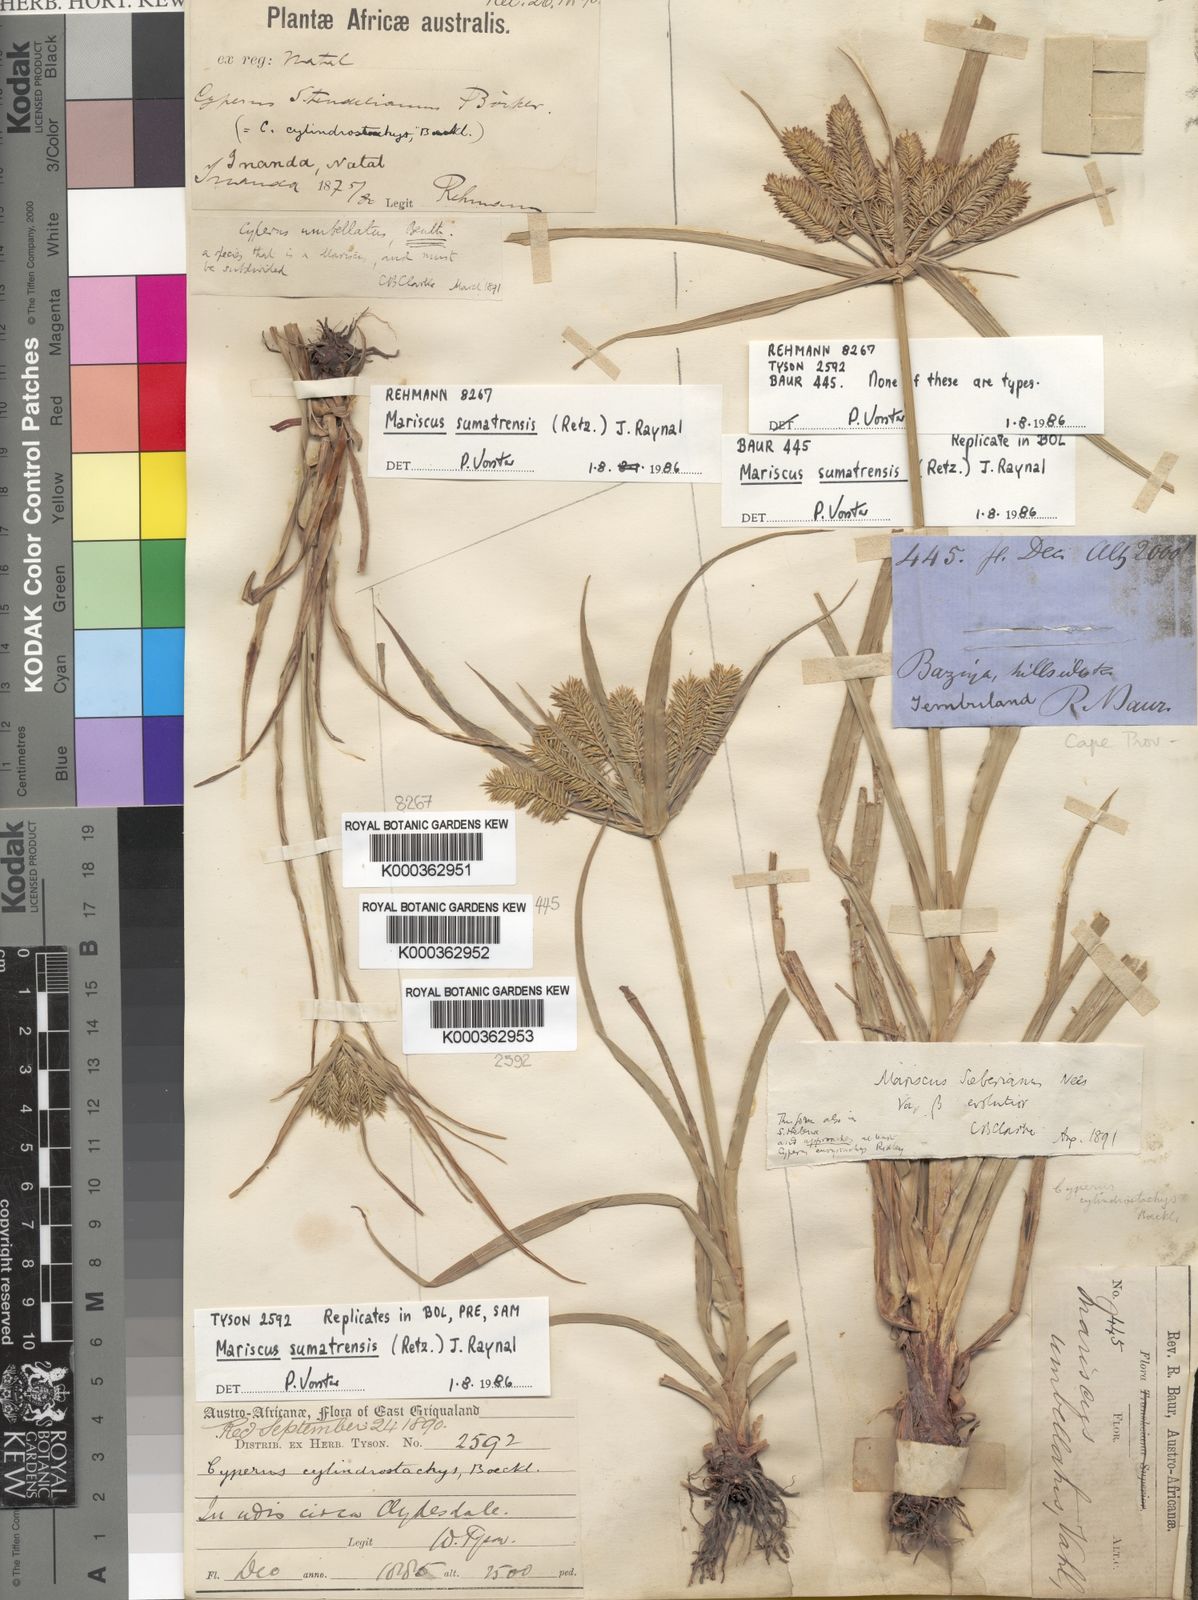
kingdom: Plantae
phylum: Tracheophyta
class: Liliopsida
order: Poales
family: Cyperaceae
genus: Cyperus
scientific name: Cyperus
